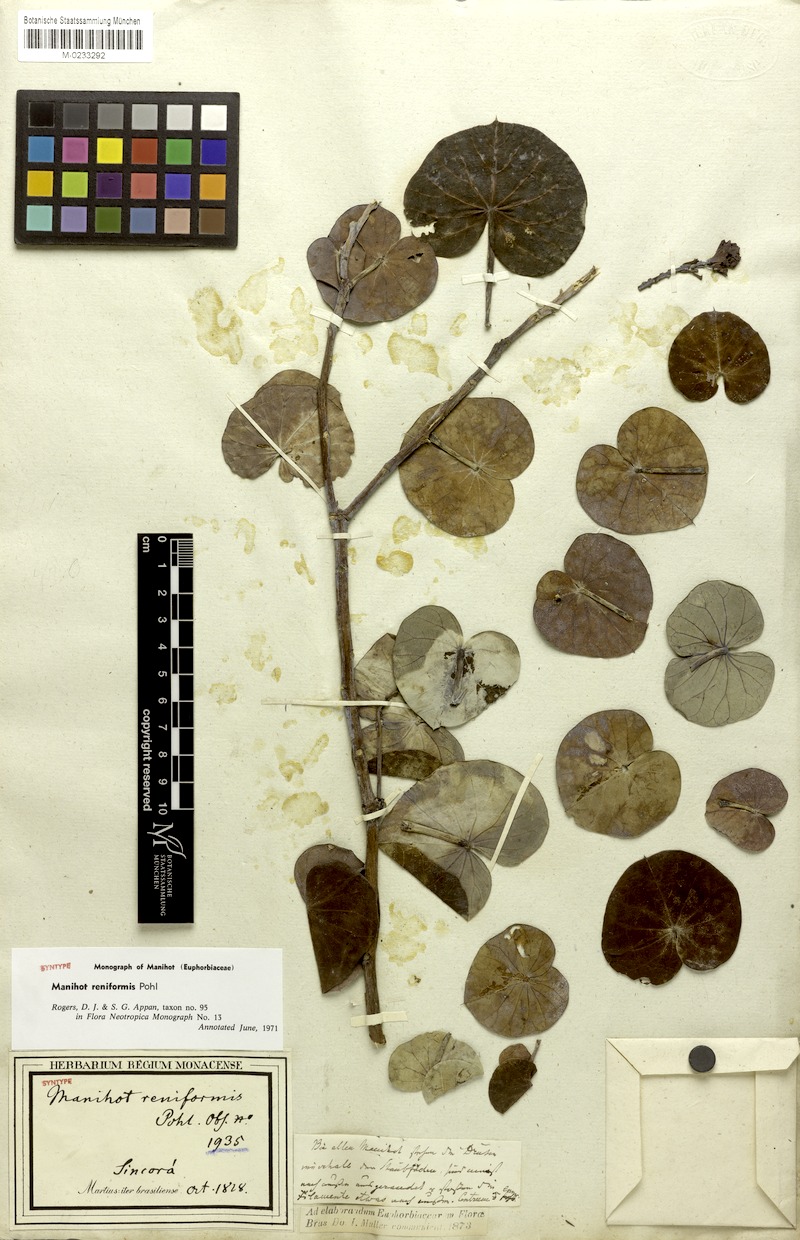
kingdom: Plantae
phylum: Tracheophyta
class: Magnoliopsida
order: Malpighiales
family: Euphorbiaceae
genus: Manihot
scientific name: Manihot reniformis
